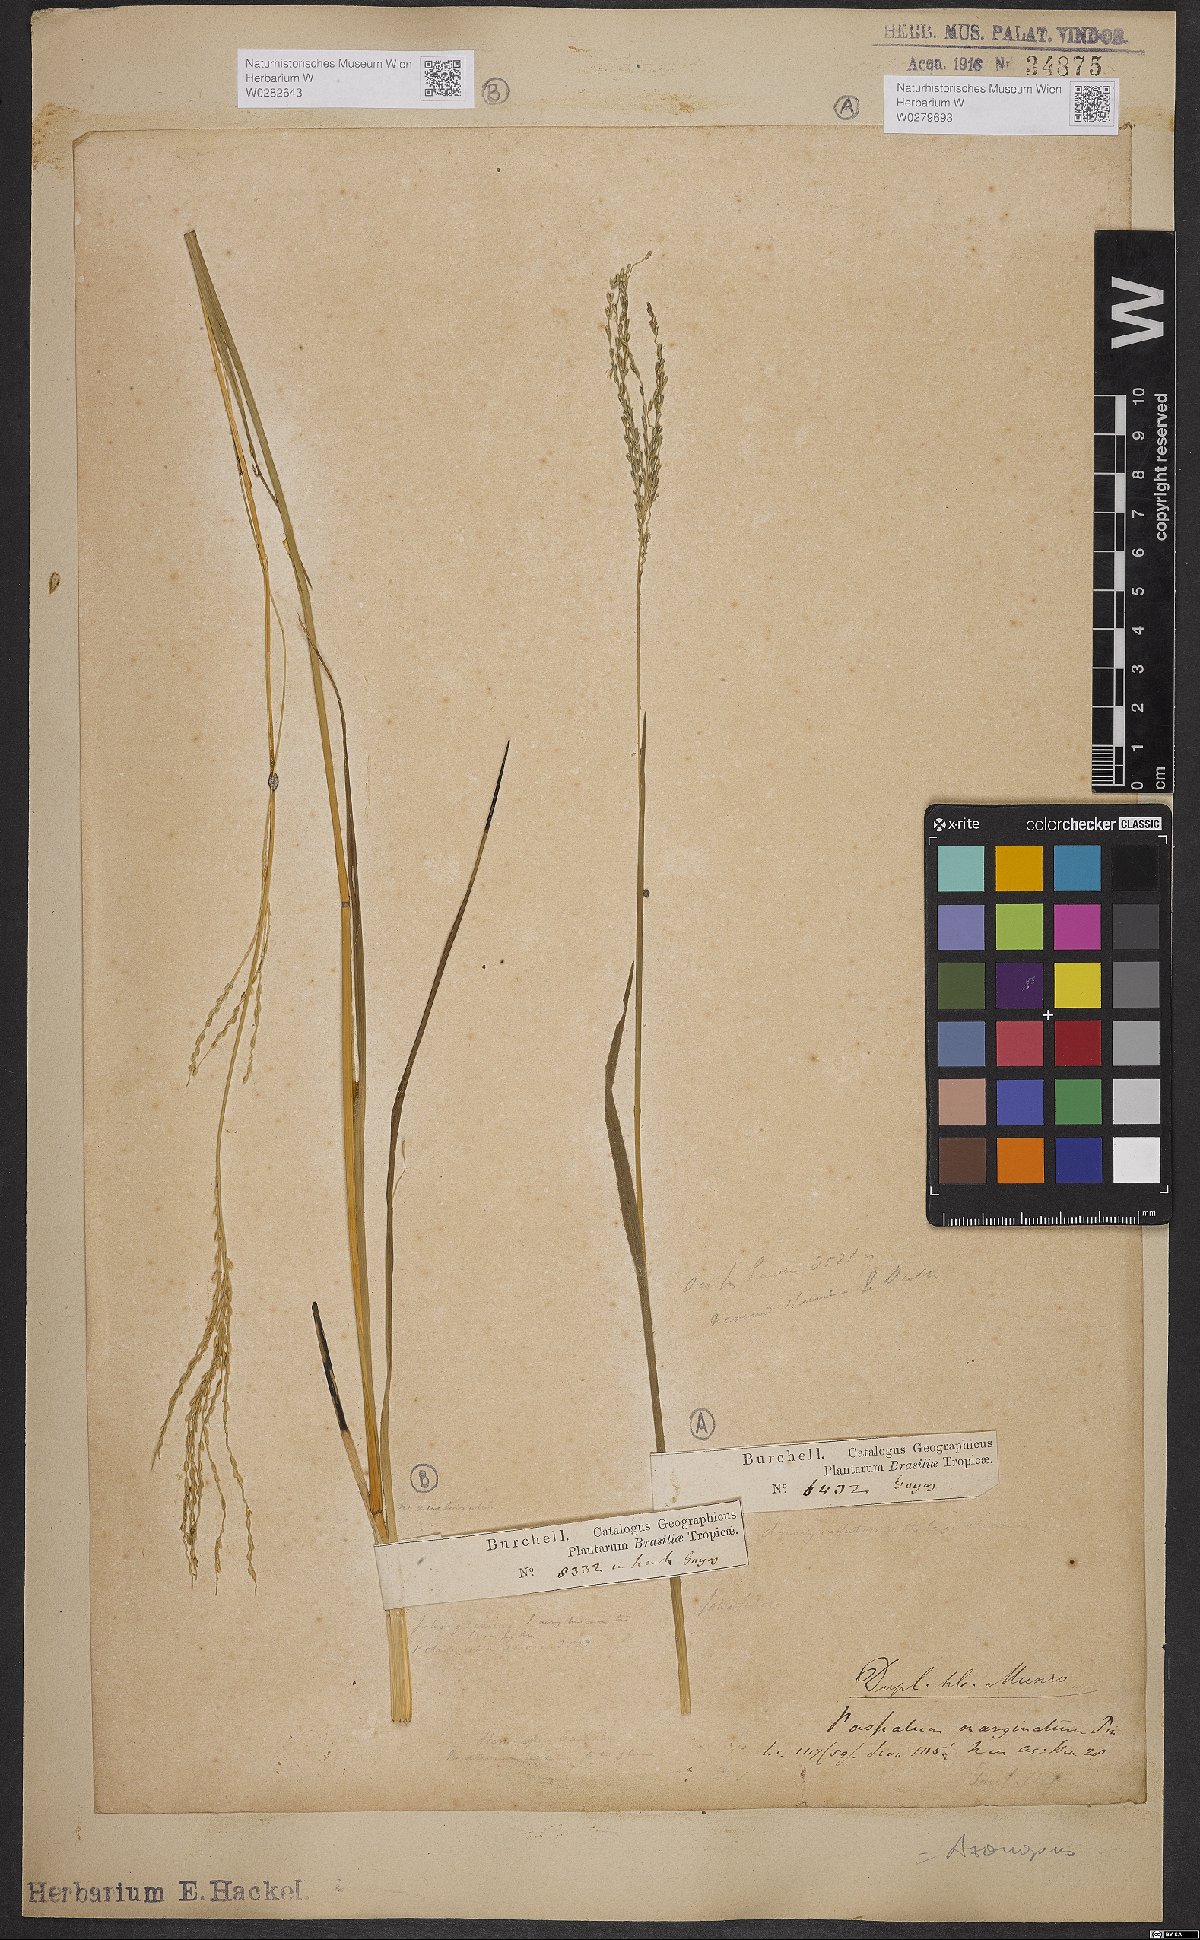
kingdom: Plantae
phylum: Tracheophyta
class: Liliopsida
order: Poales
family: Poaceae
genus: Axonopus
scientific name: Axonopus marginatus
